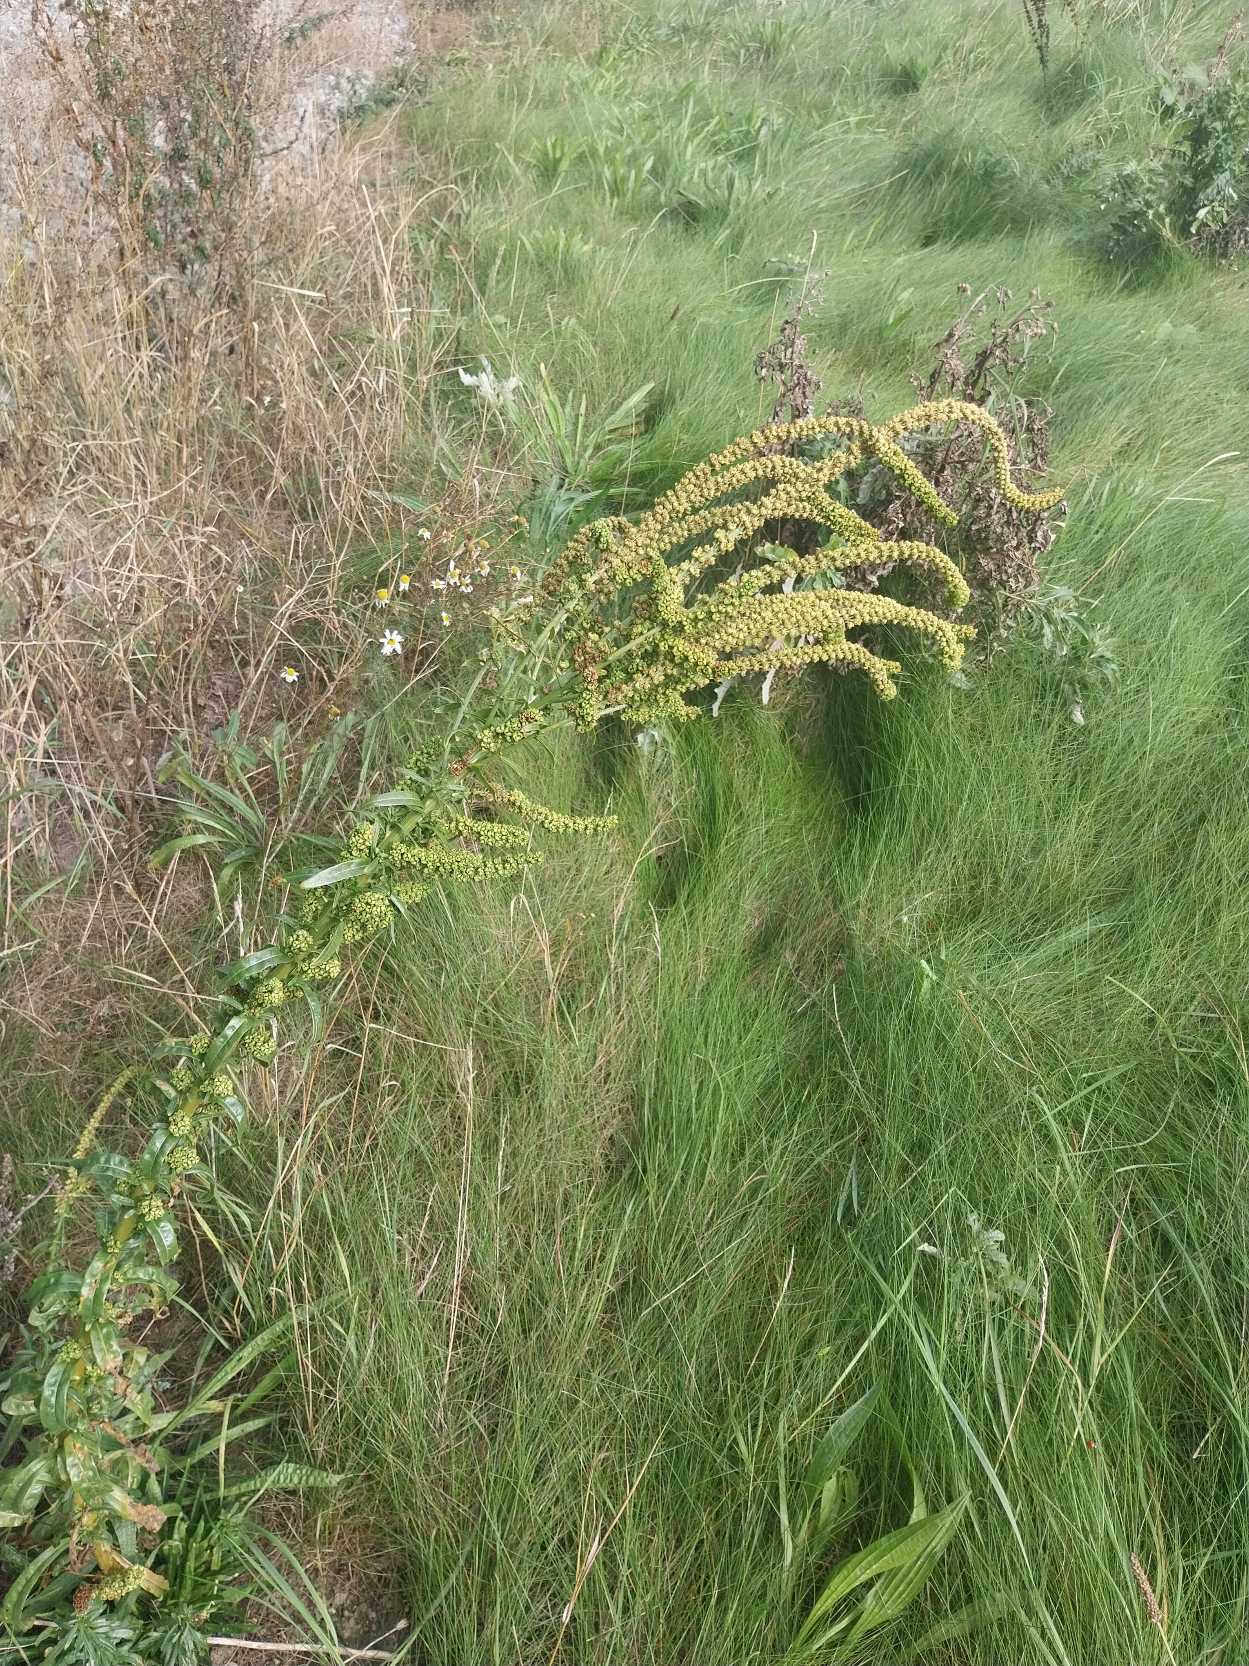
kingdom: Plantae
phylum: Tracheophyta
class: Magnoliopsida
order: Brassicales
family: Resedaceae
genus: Reseda
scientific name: Reseda luteola
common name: Farve-reseda
